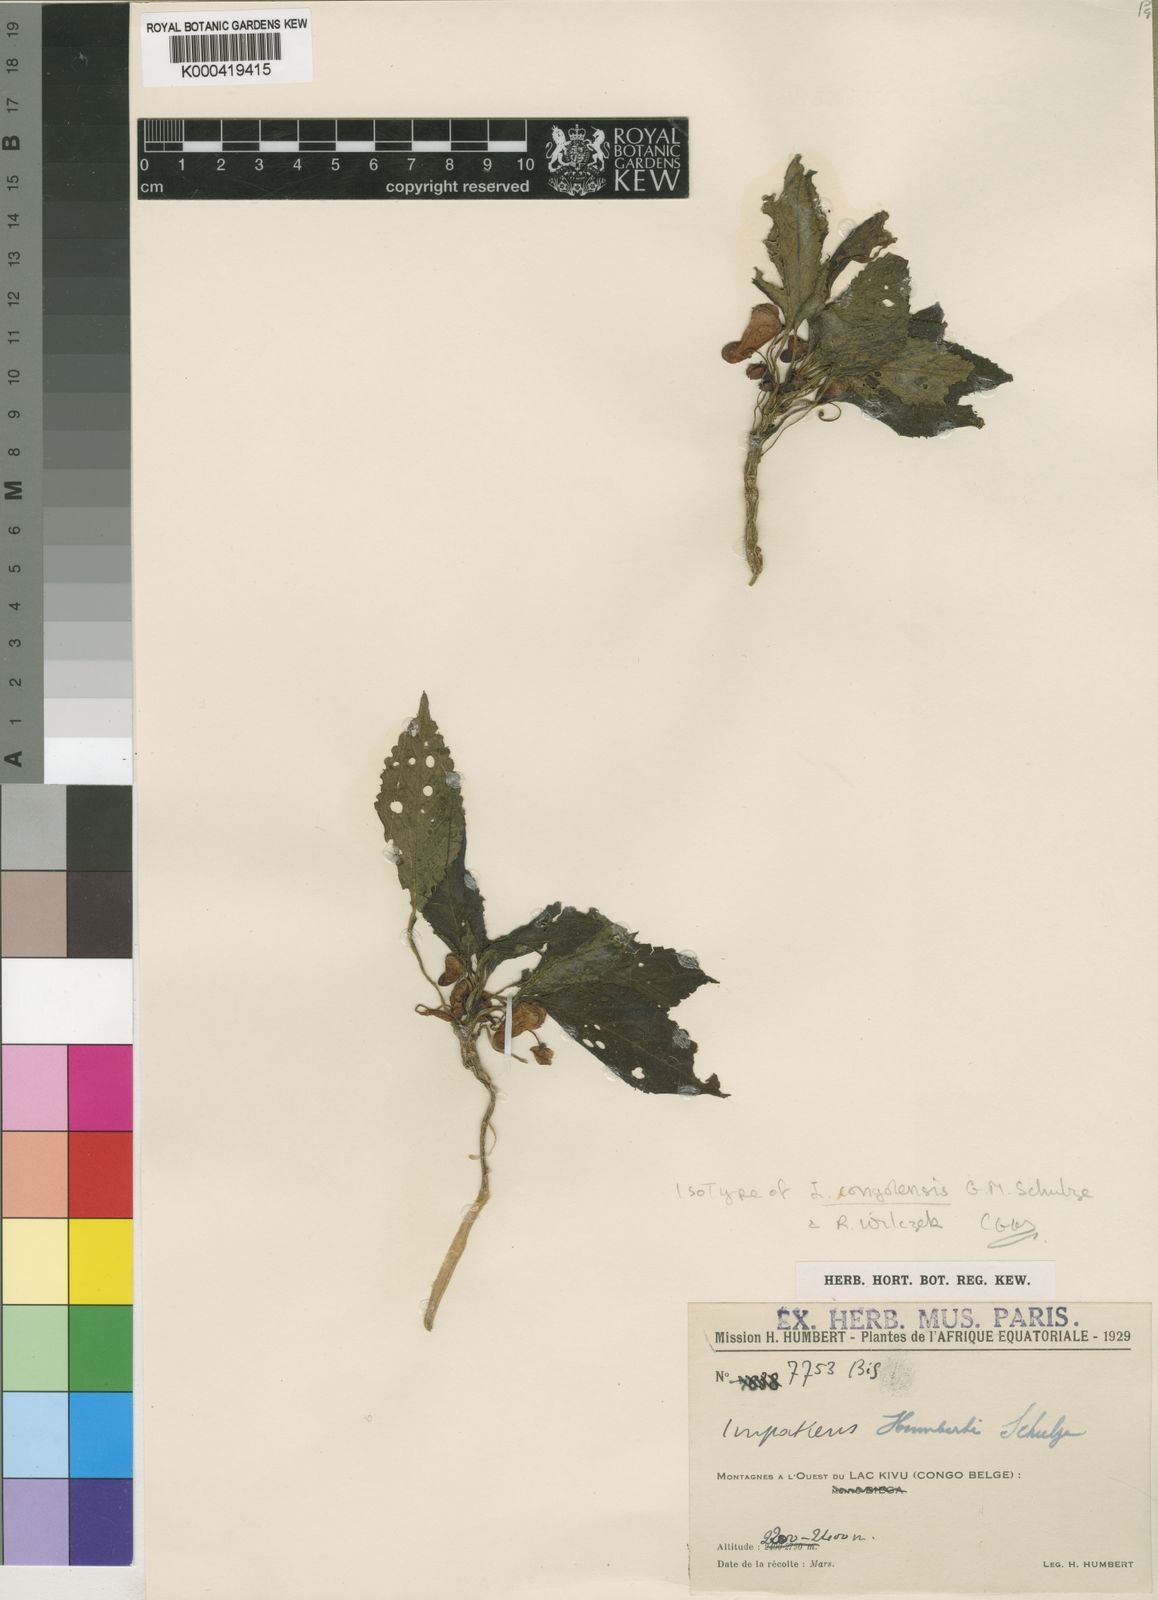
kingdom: Plantae
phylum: Tracheophyta
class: Magnoliopsida
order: Ericales
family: Balsaminaceae
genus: Impatiens
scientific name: Impatiens congolensis
